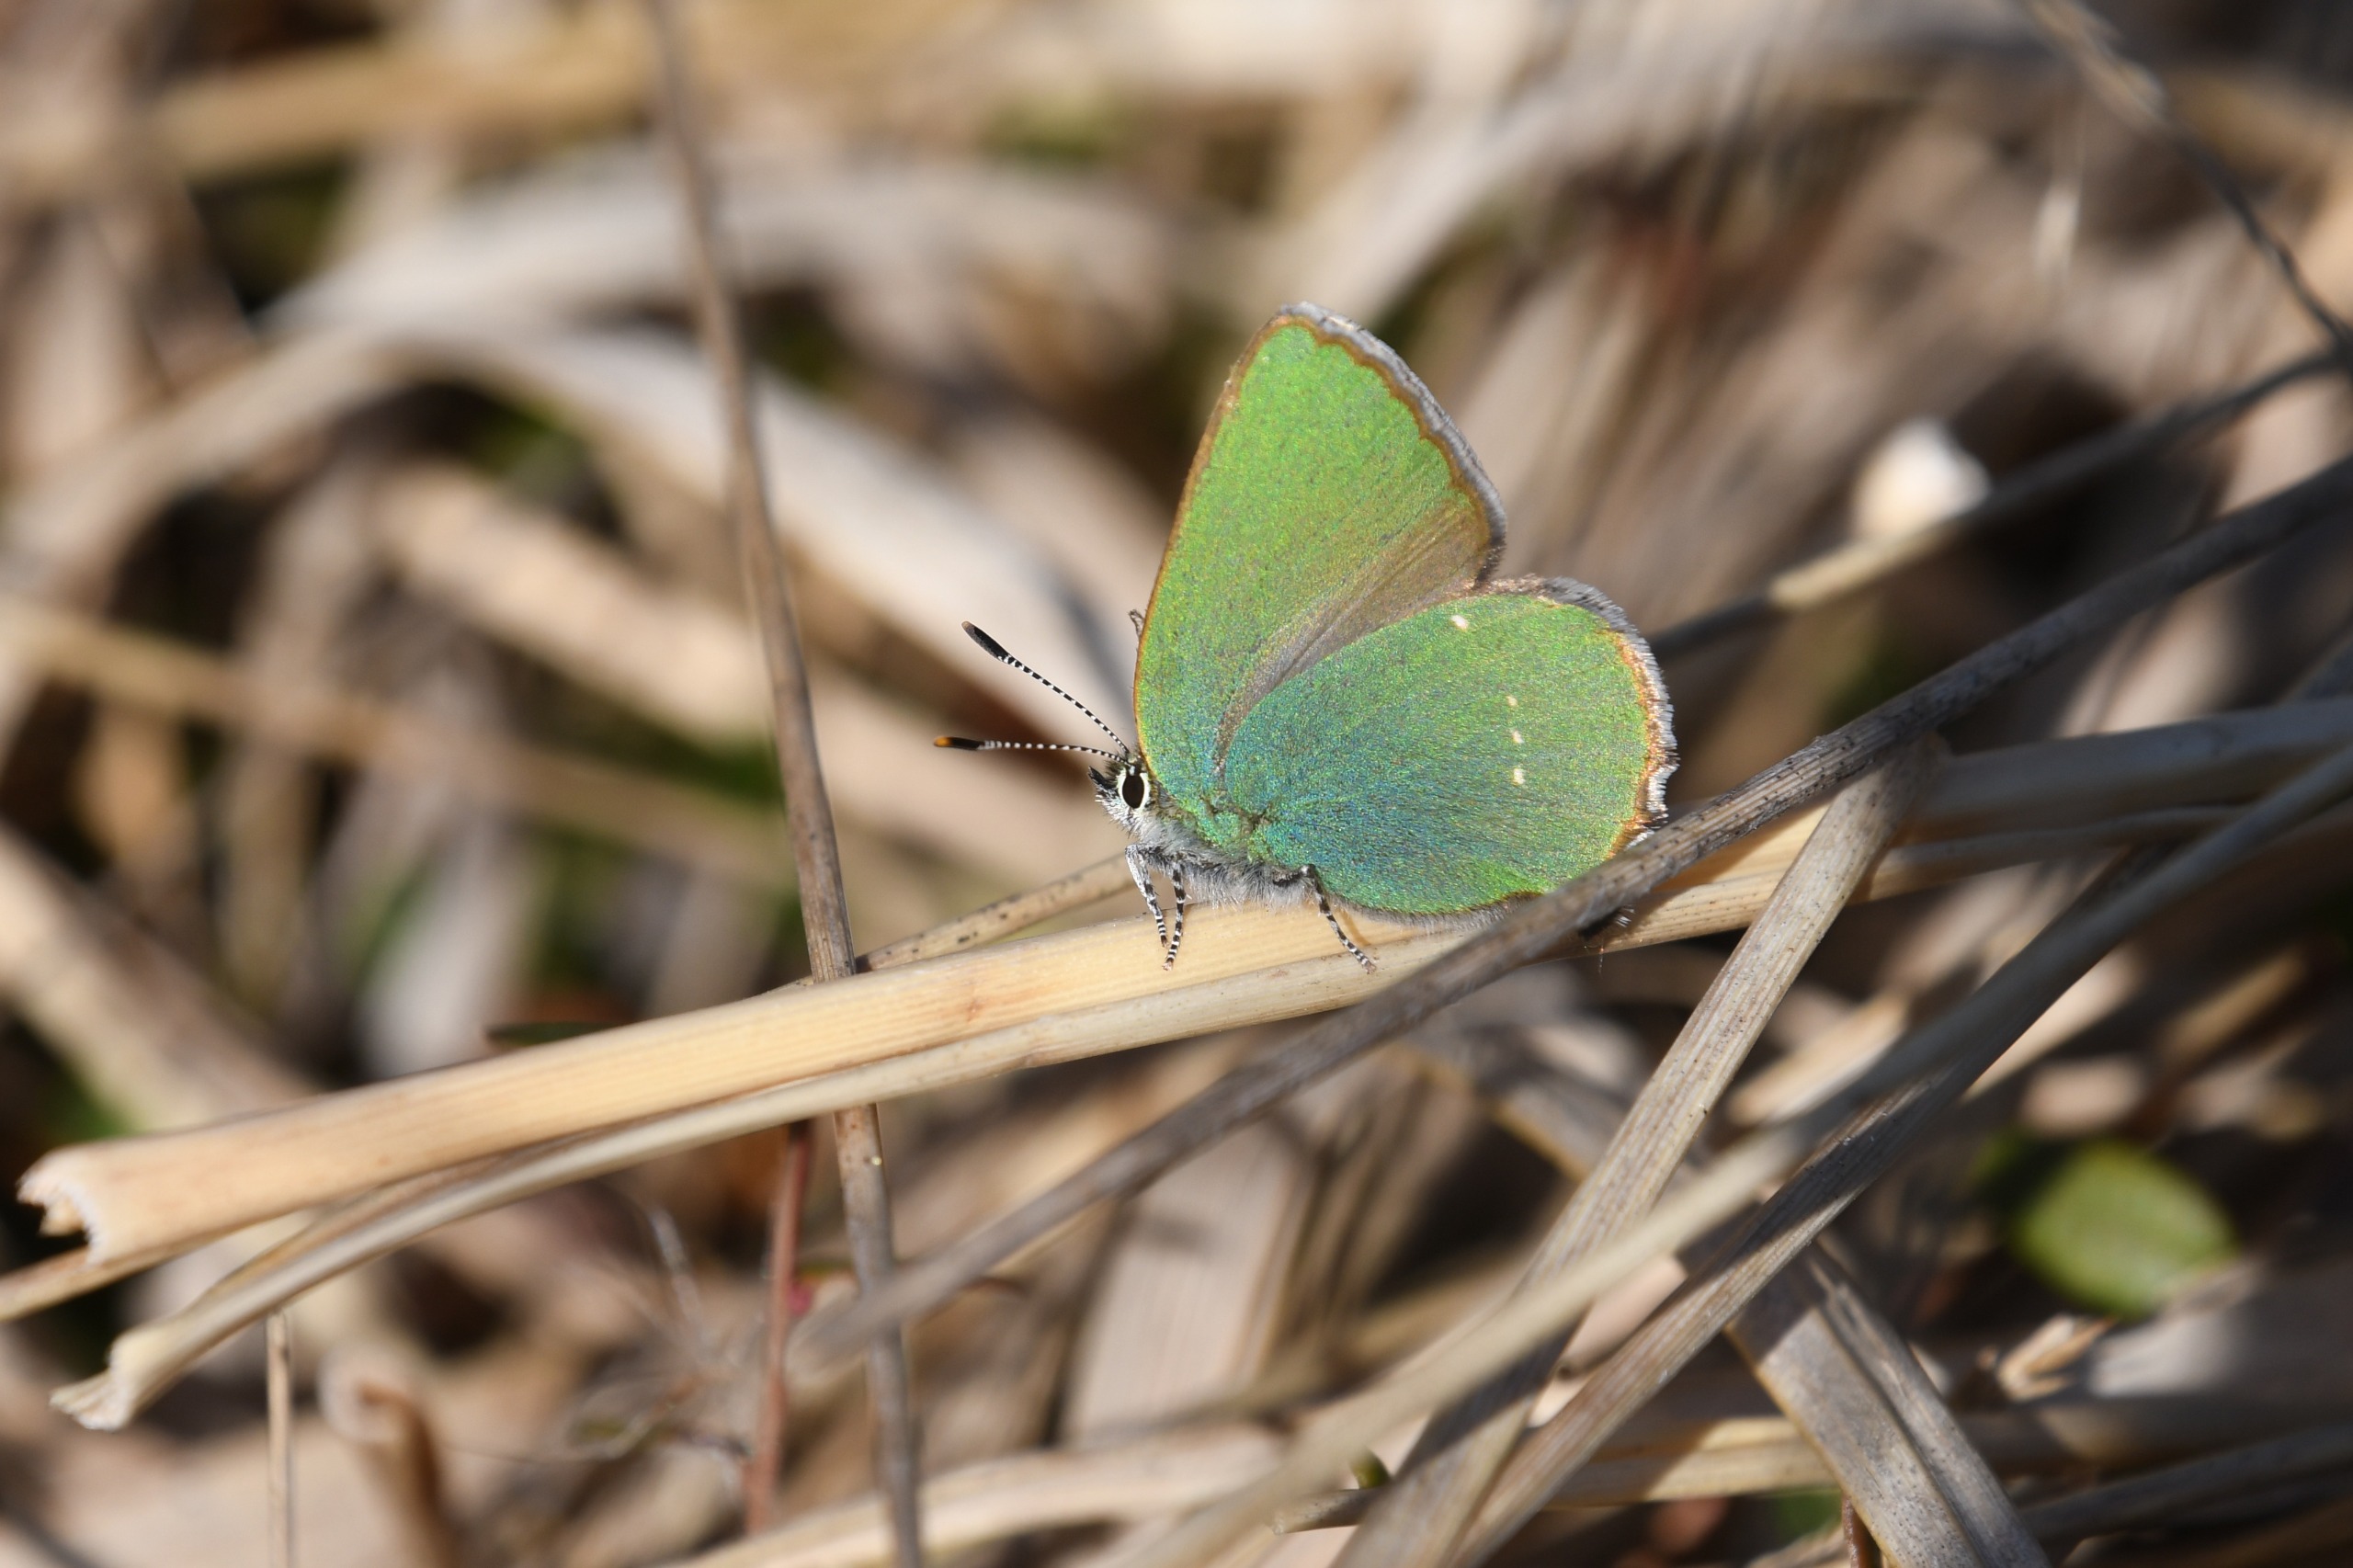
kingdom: Animalia
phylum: Arthropoda
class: Insecta
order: Lepidoptera
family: Lycaenidae
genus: Callophrys
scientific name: Callophrys rubi
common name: Grøn busksommerfugl
